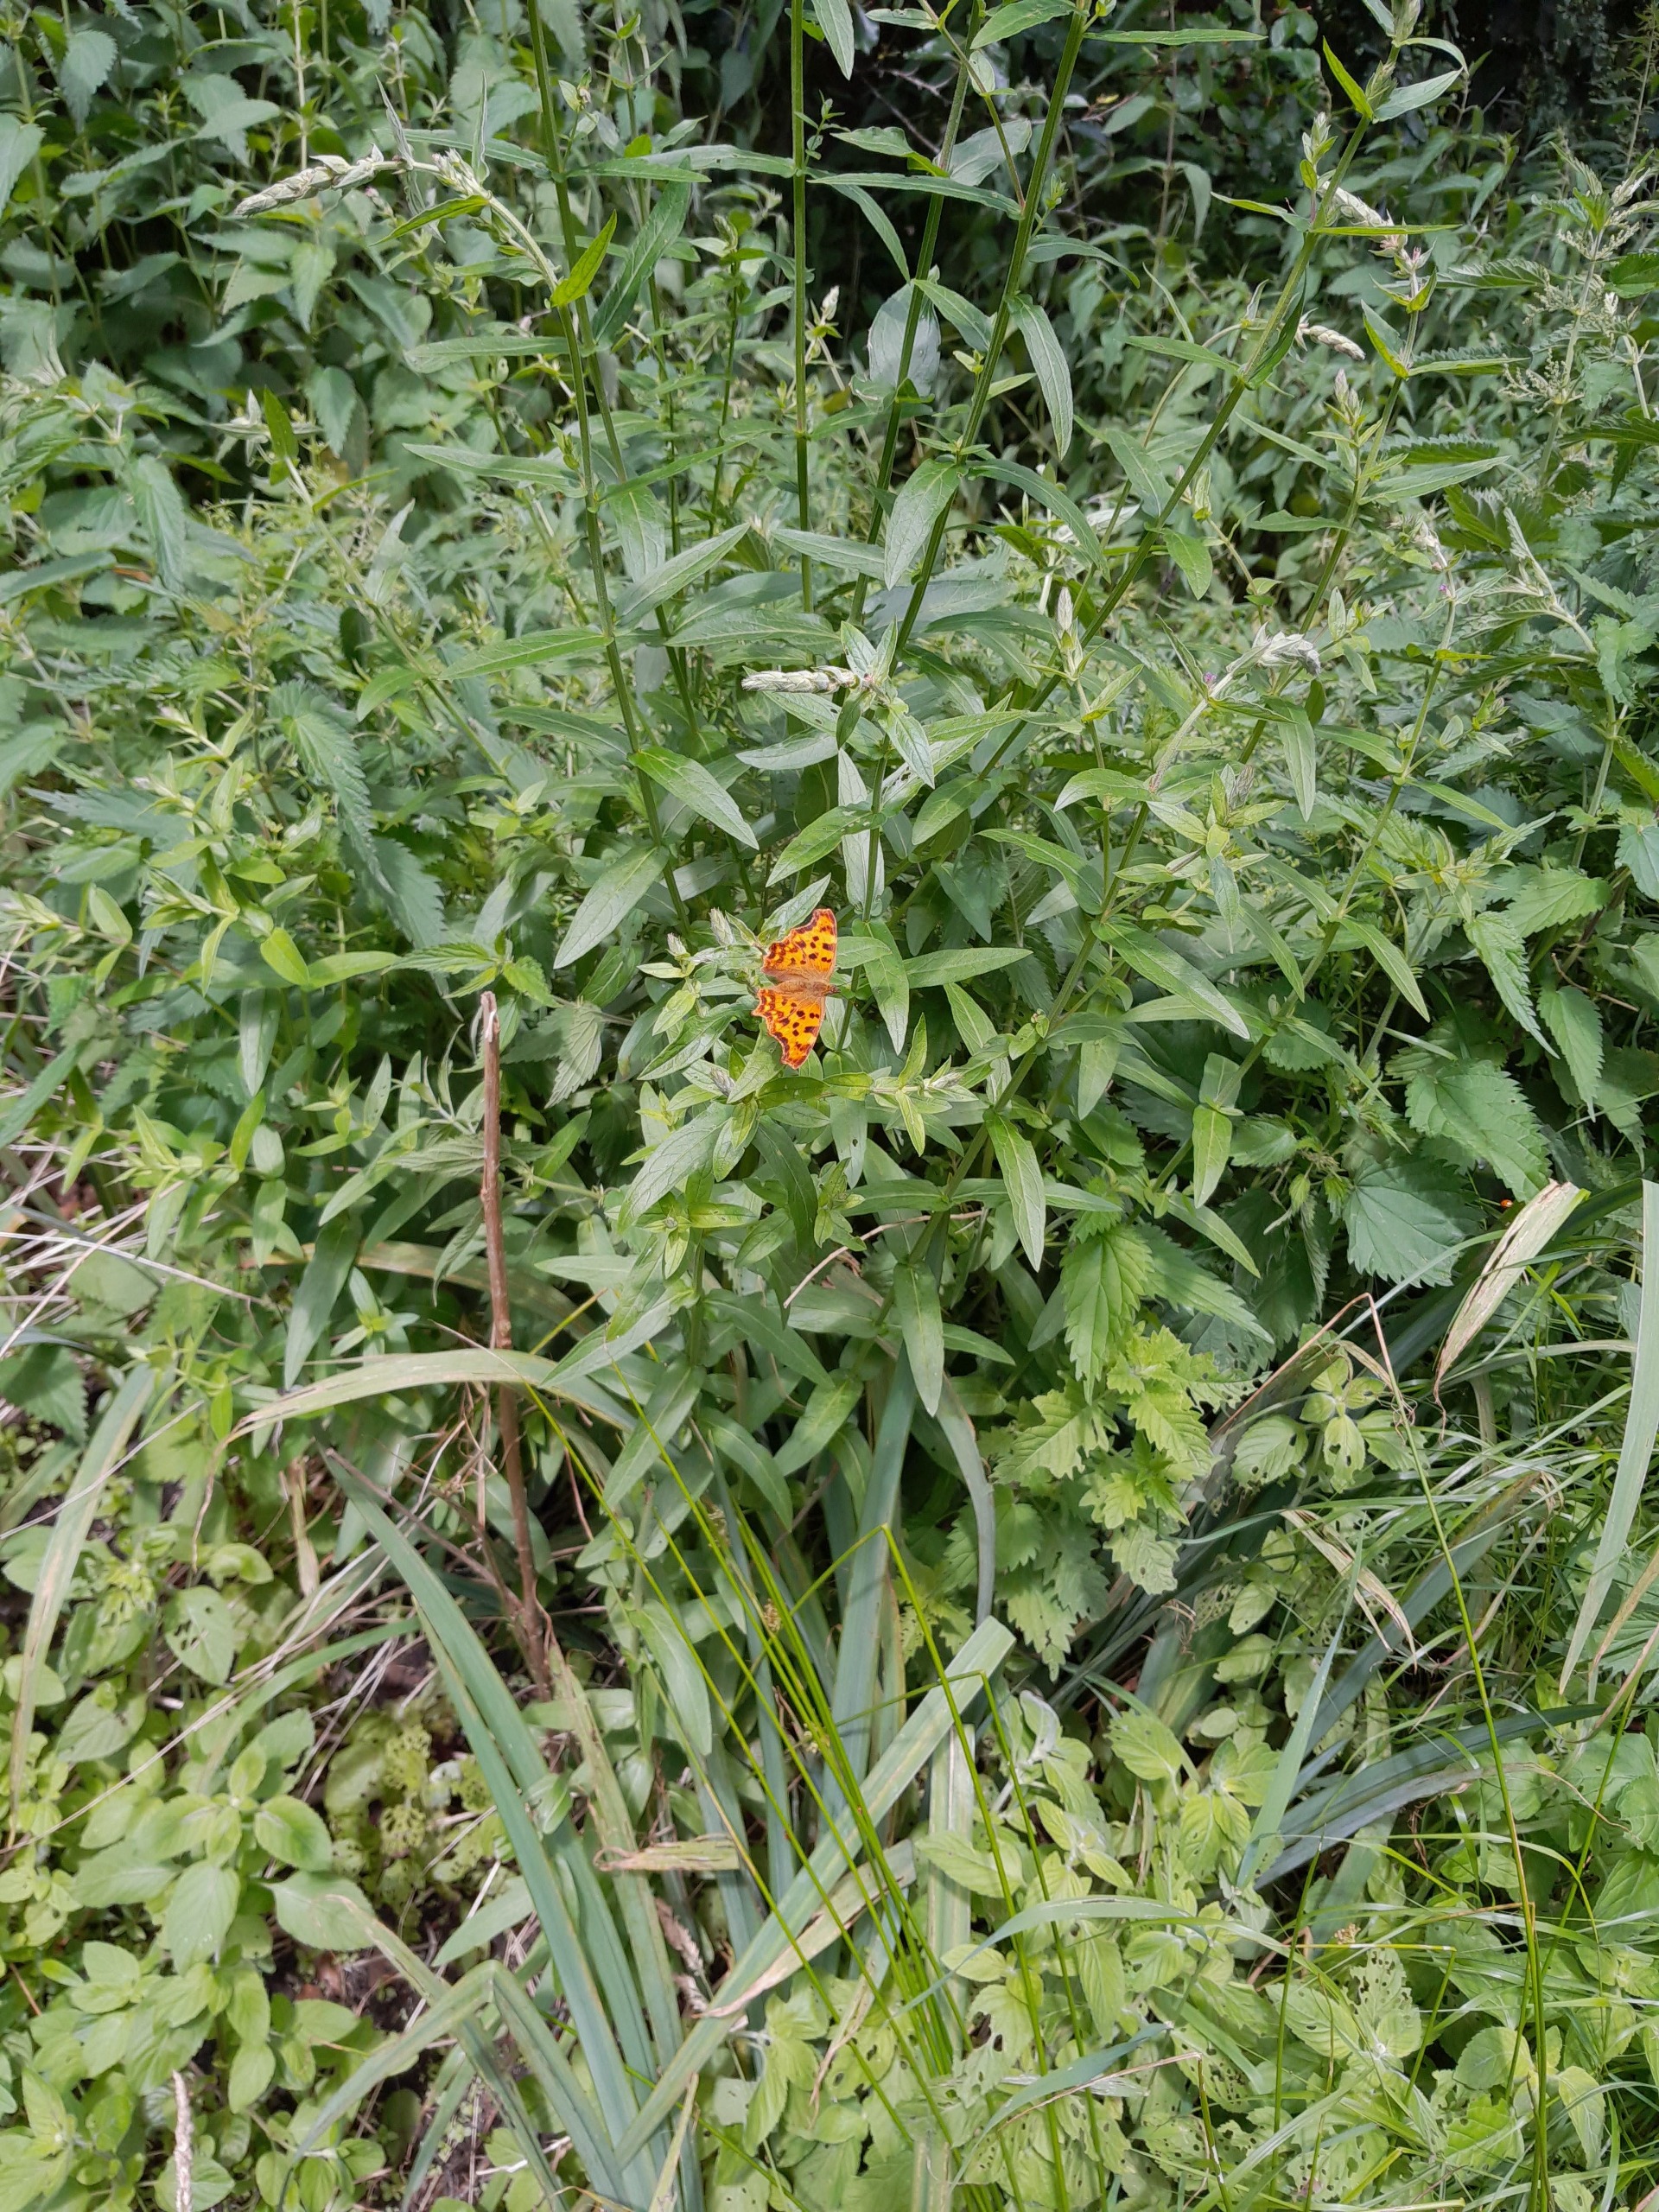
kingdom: Animalia
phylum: Arthropoda
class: Insecta
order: Lepidoptera
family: Nymphalidae
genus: Polygonia
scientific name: Polygonia c-album
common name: Det hvide C
